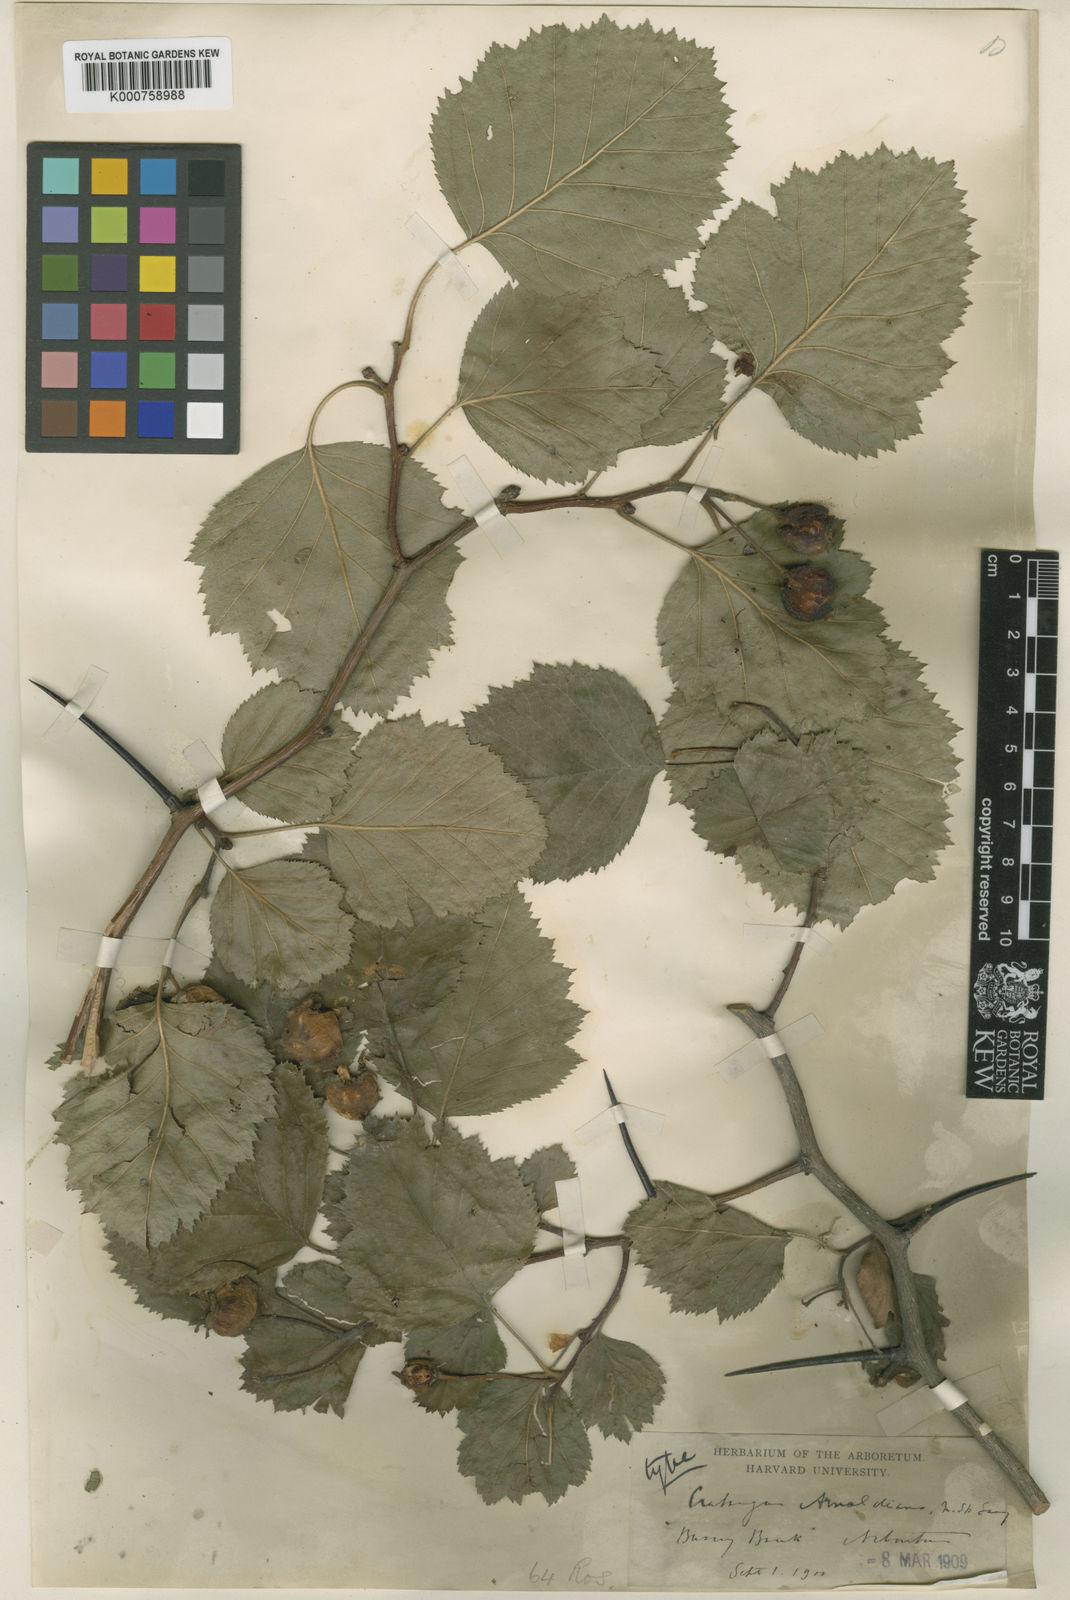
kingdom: Plantae
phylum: Tracheophyta
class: Magnoliopsida
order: Rosales
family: Rosaceae
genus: Crataegus
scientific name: Crataegus holmesiana
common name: Holmes' hawthorn
